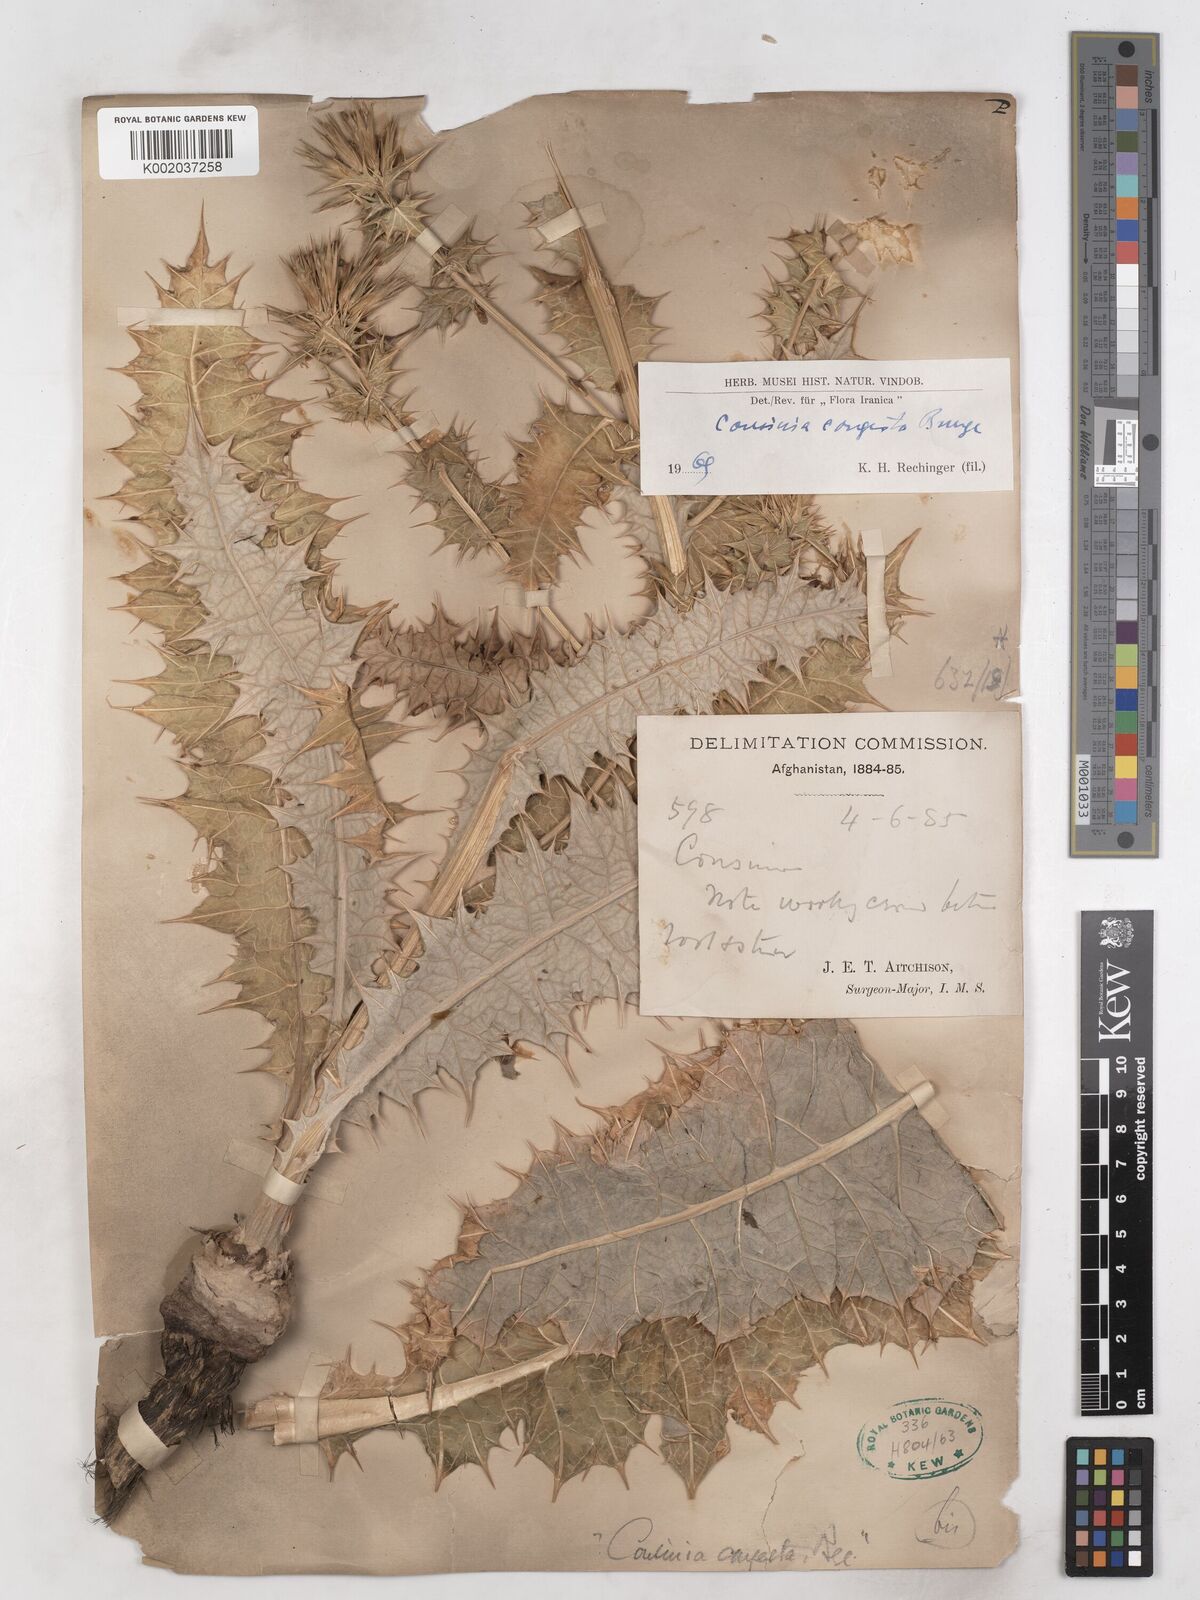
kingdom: Plantae
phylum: Tracheophyta
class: Magnoliopsida
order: Asterales
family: Asteraceae
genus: Cousinia
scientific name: Cousinia congesta
